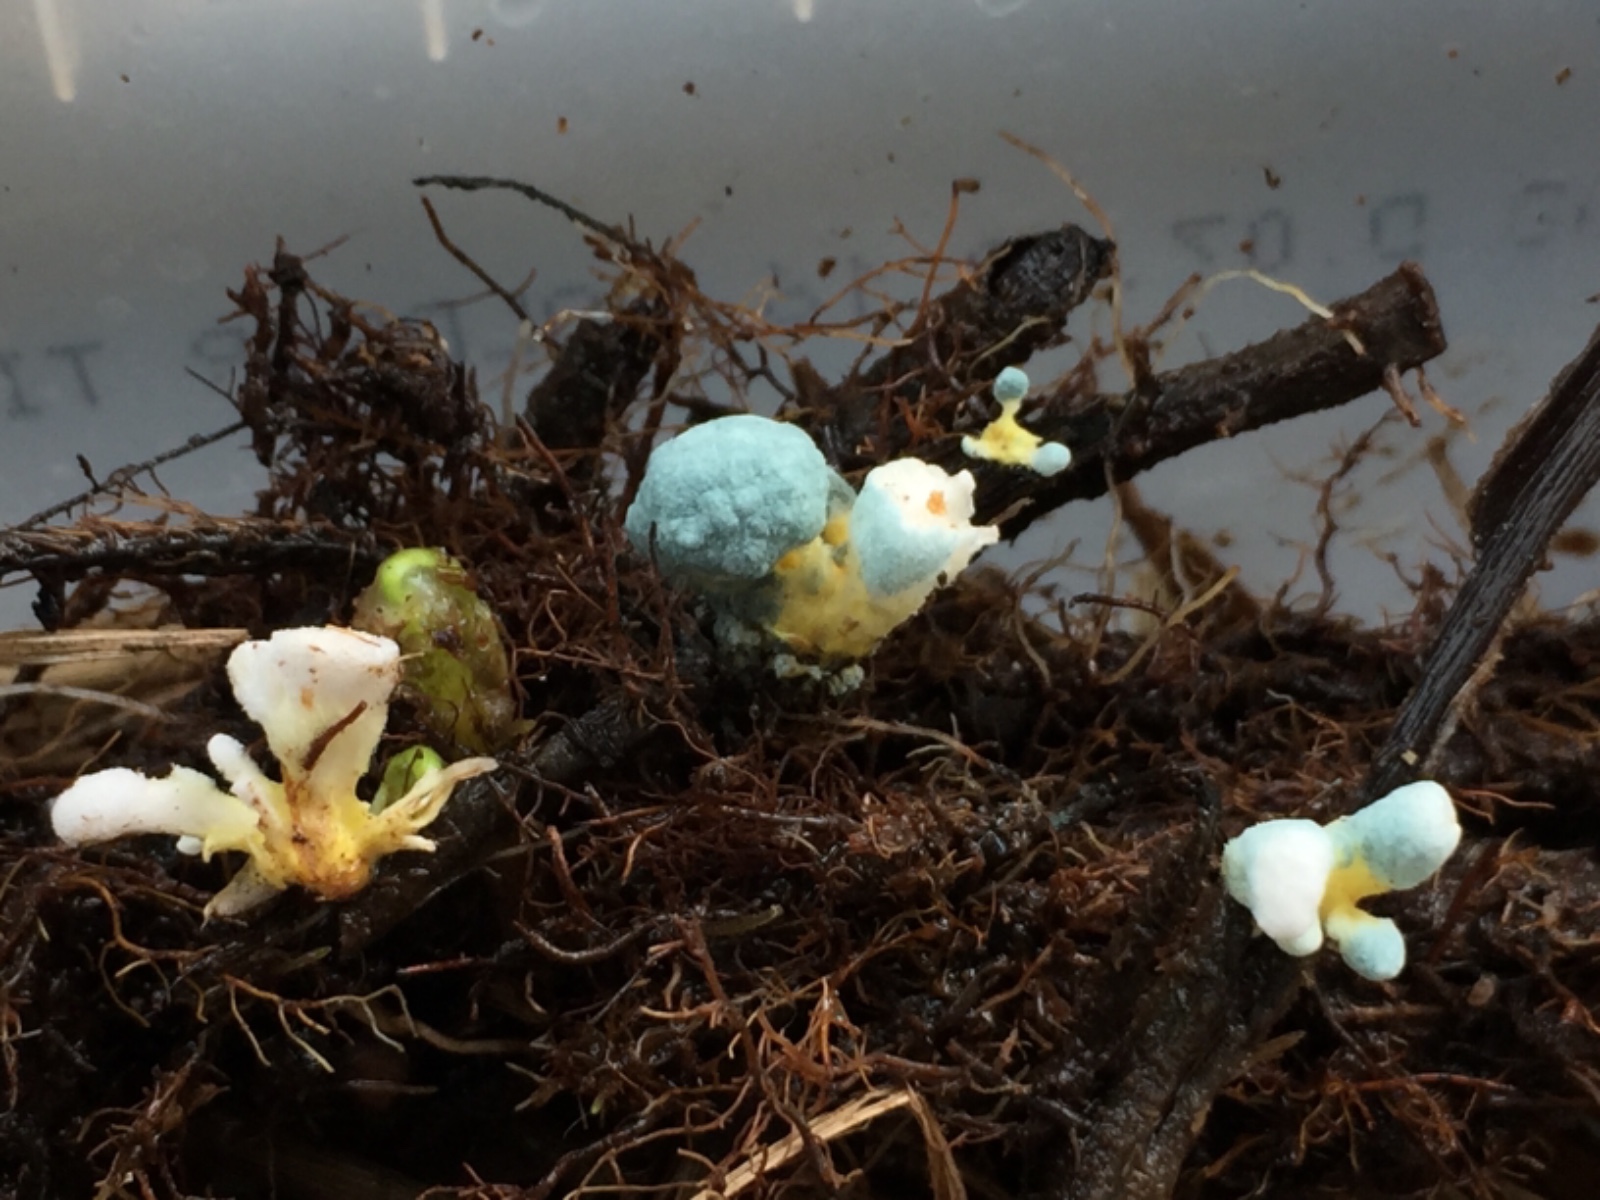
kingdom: Fungi
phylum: Ascomycota
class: Eurotiomycetes
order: Eurotiales
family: Aspergillaceae
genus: Penicillium
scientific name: Penicillium
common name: penselskimmel
